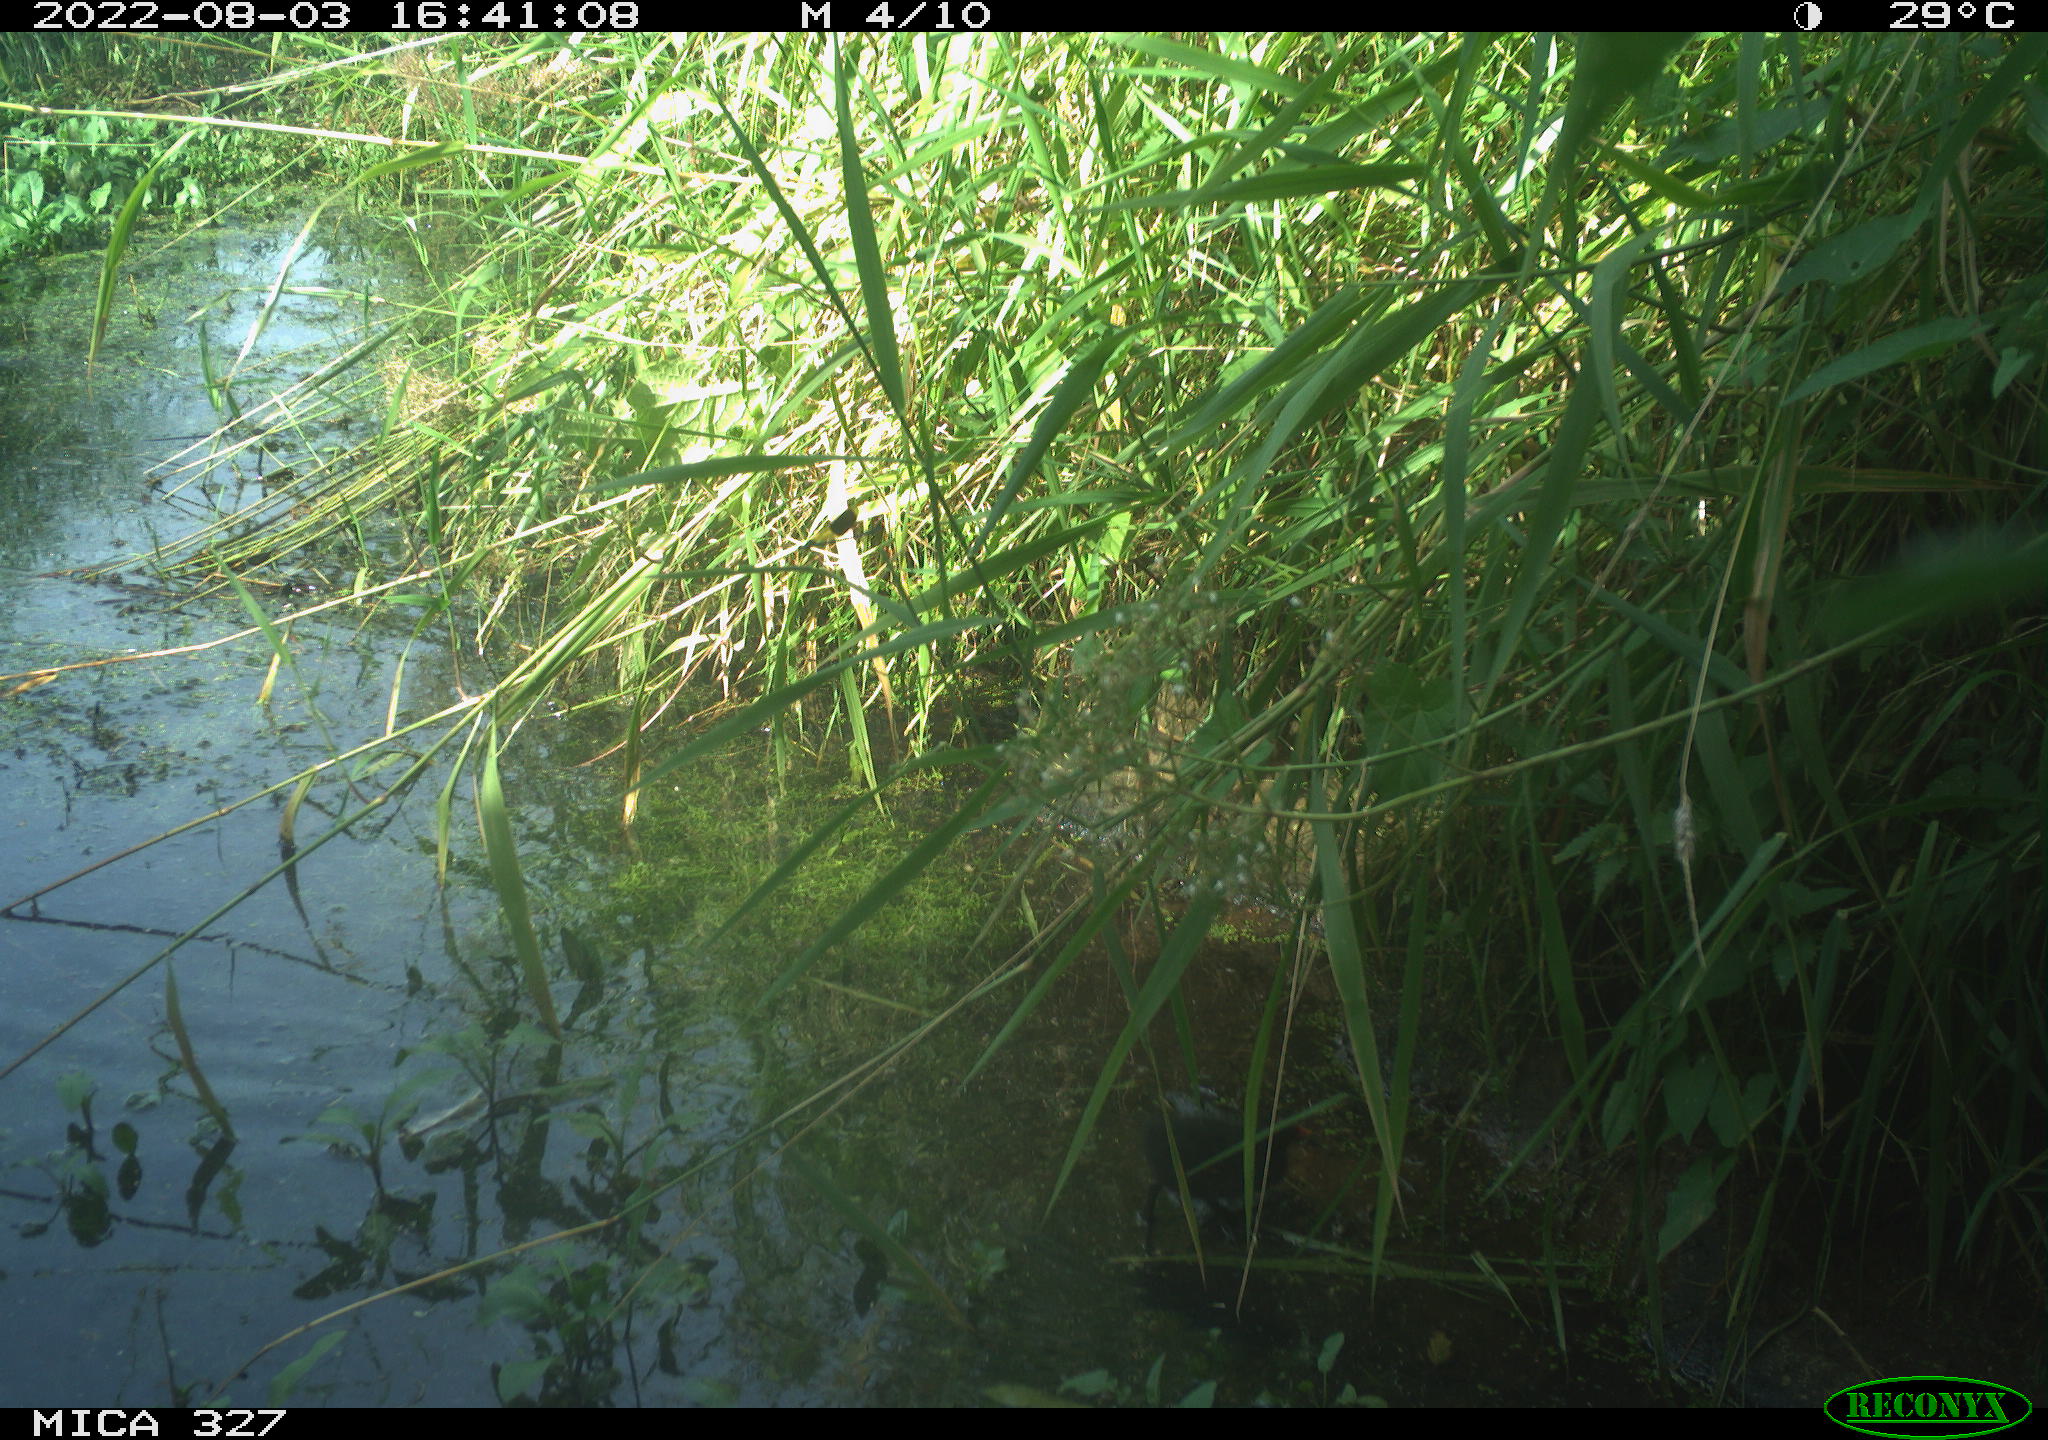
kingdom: Animalia
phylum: Chordata
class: Aves
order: Gruiformes
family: Rallidae
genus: Gallinula
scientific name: Gallinula chloropus
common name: Common moorhen
